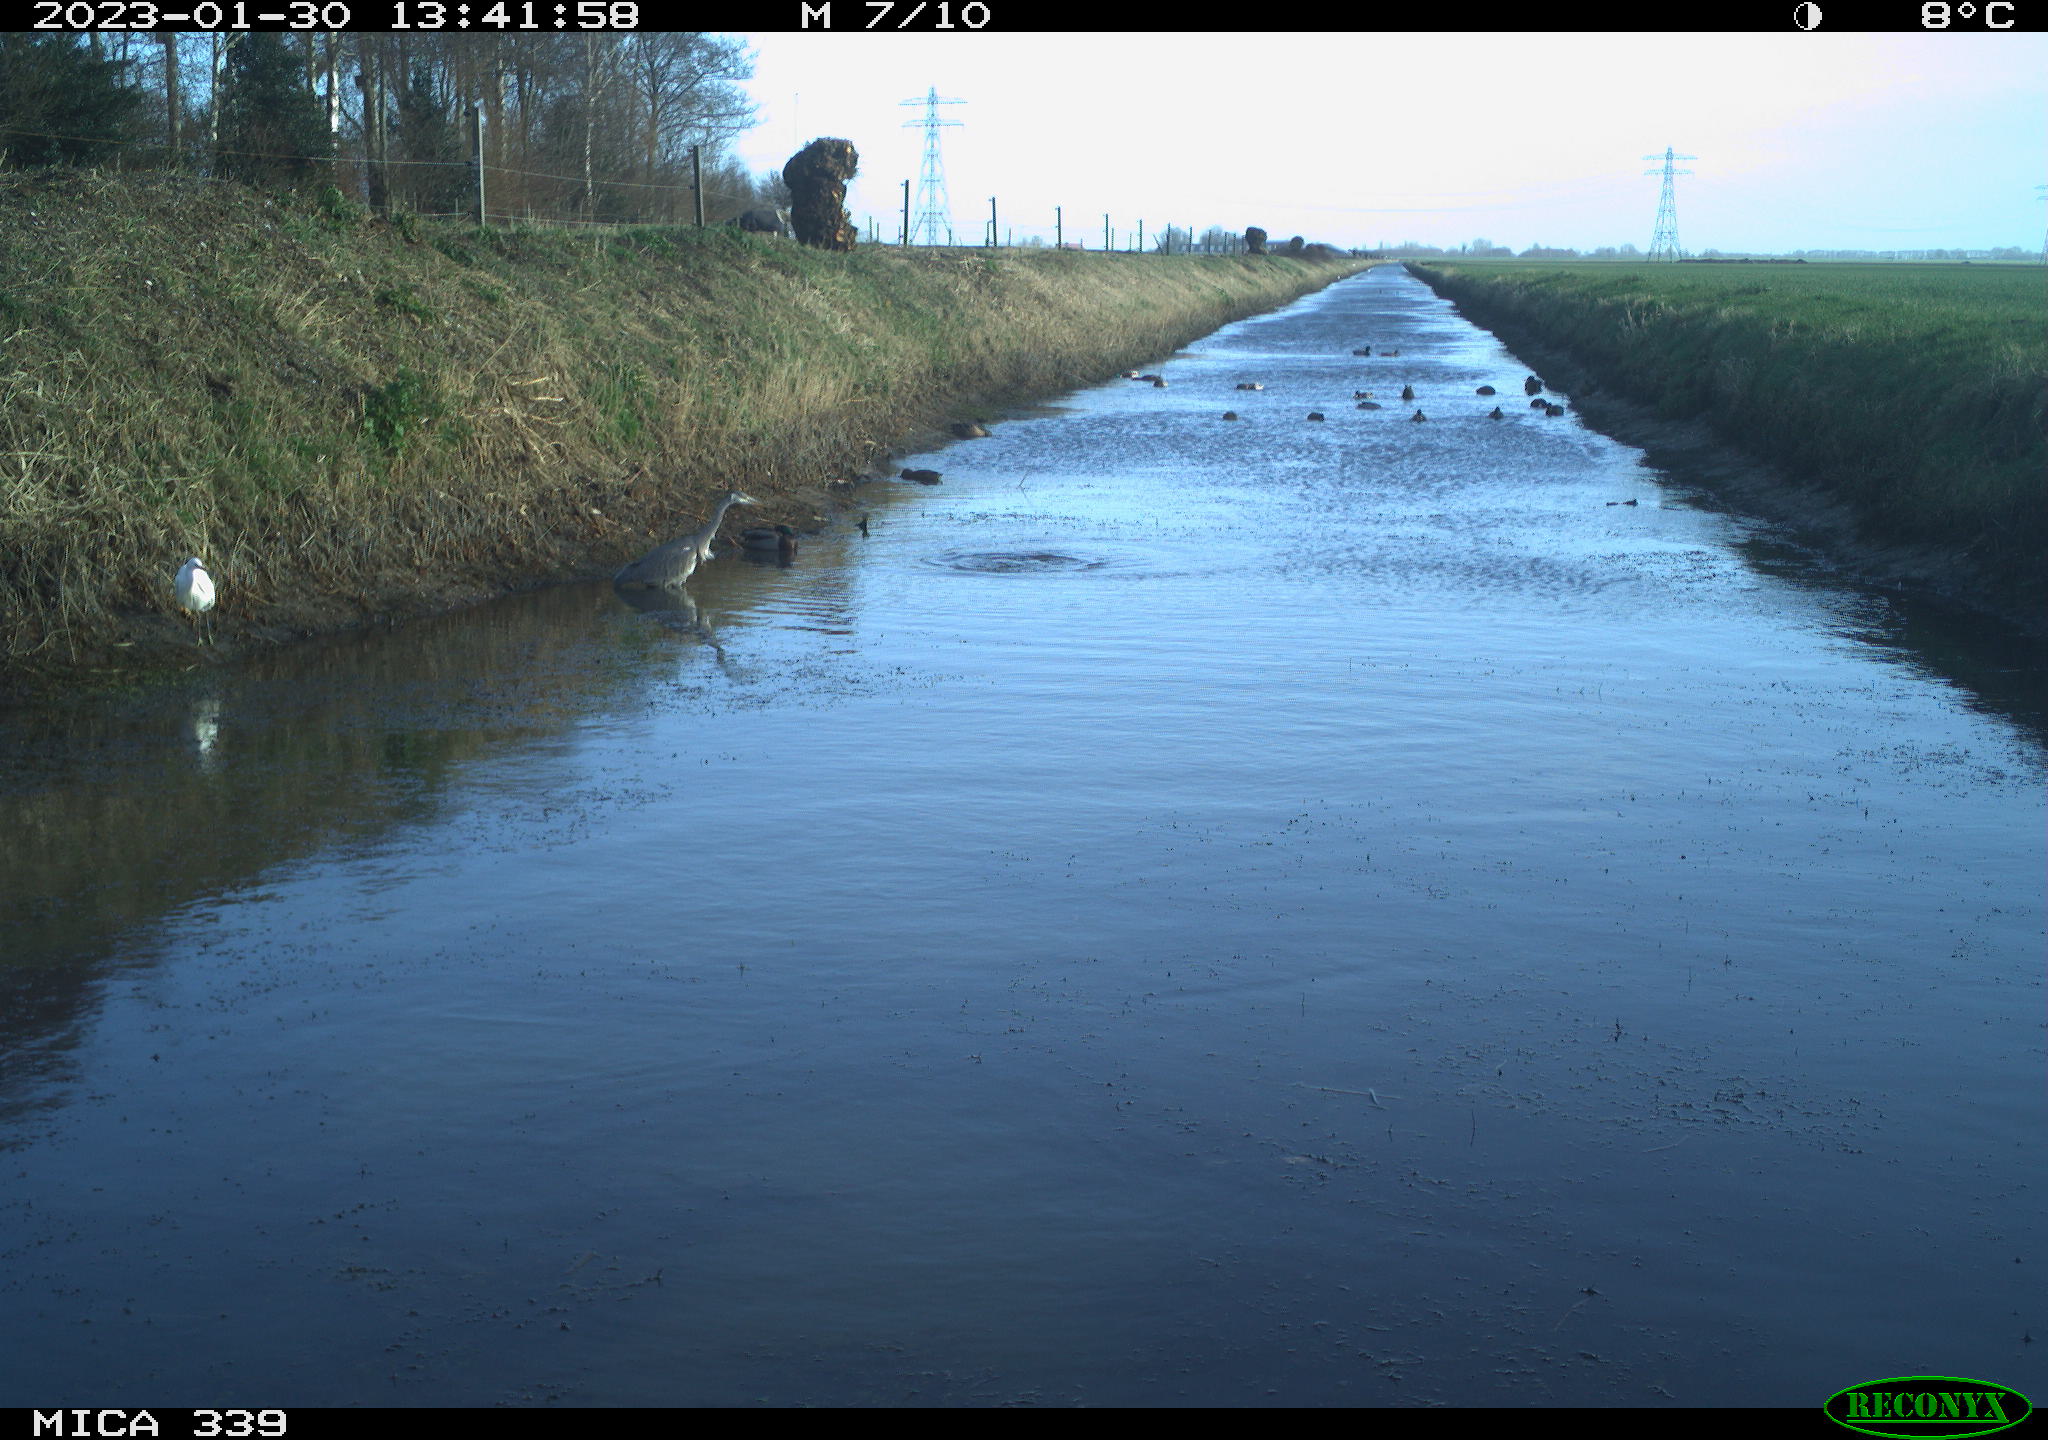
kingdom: Animalia
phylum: Chordata
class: Aves
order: Pelecaniformes
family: Ardeidae
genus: Ardea
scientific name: Ardea alba
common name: Great egret
